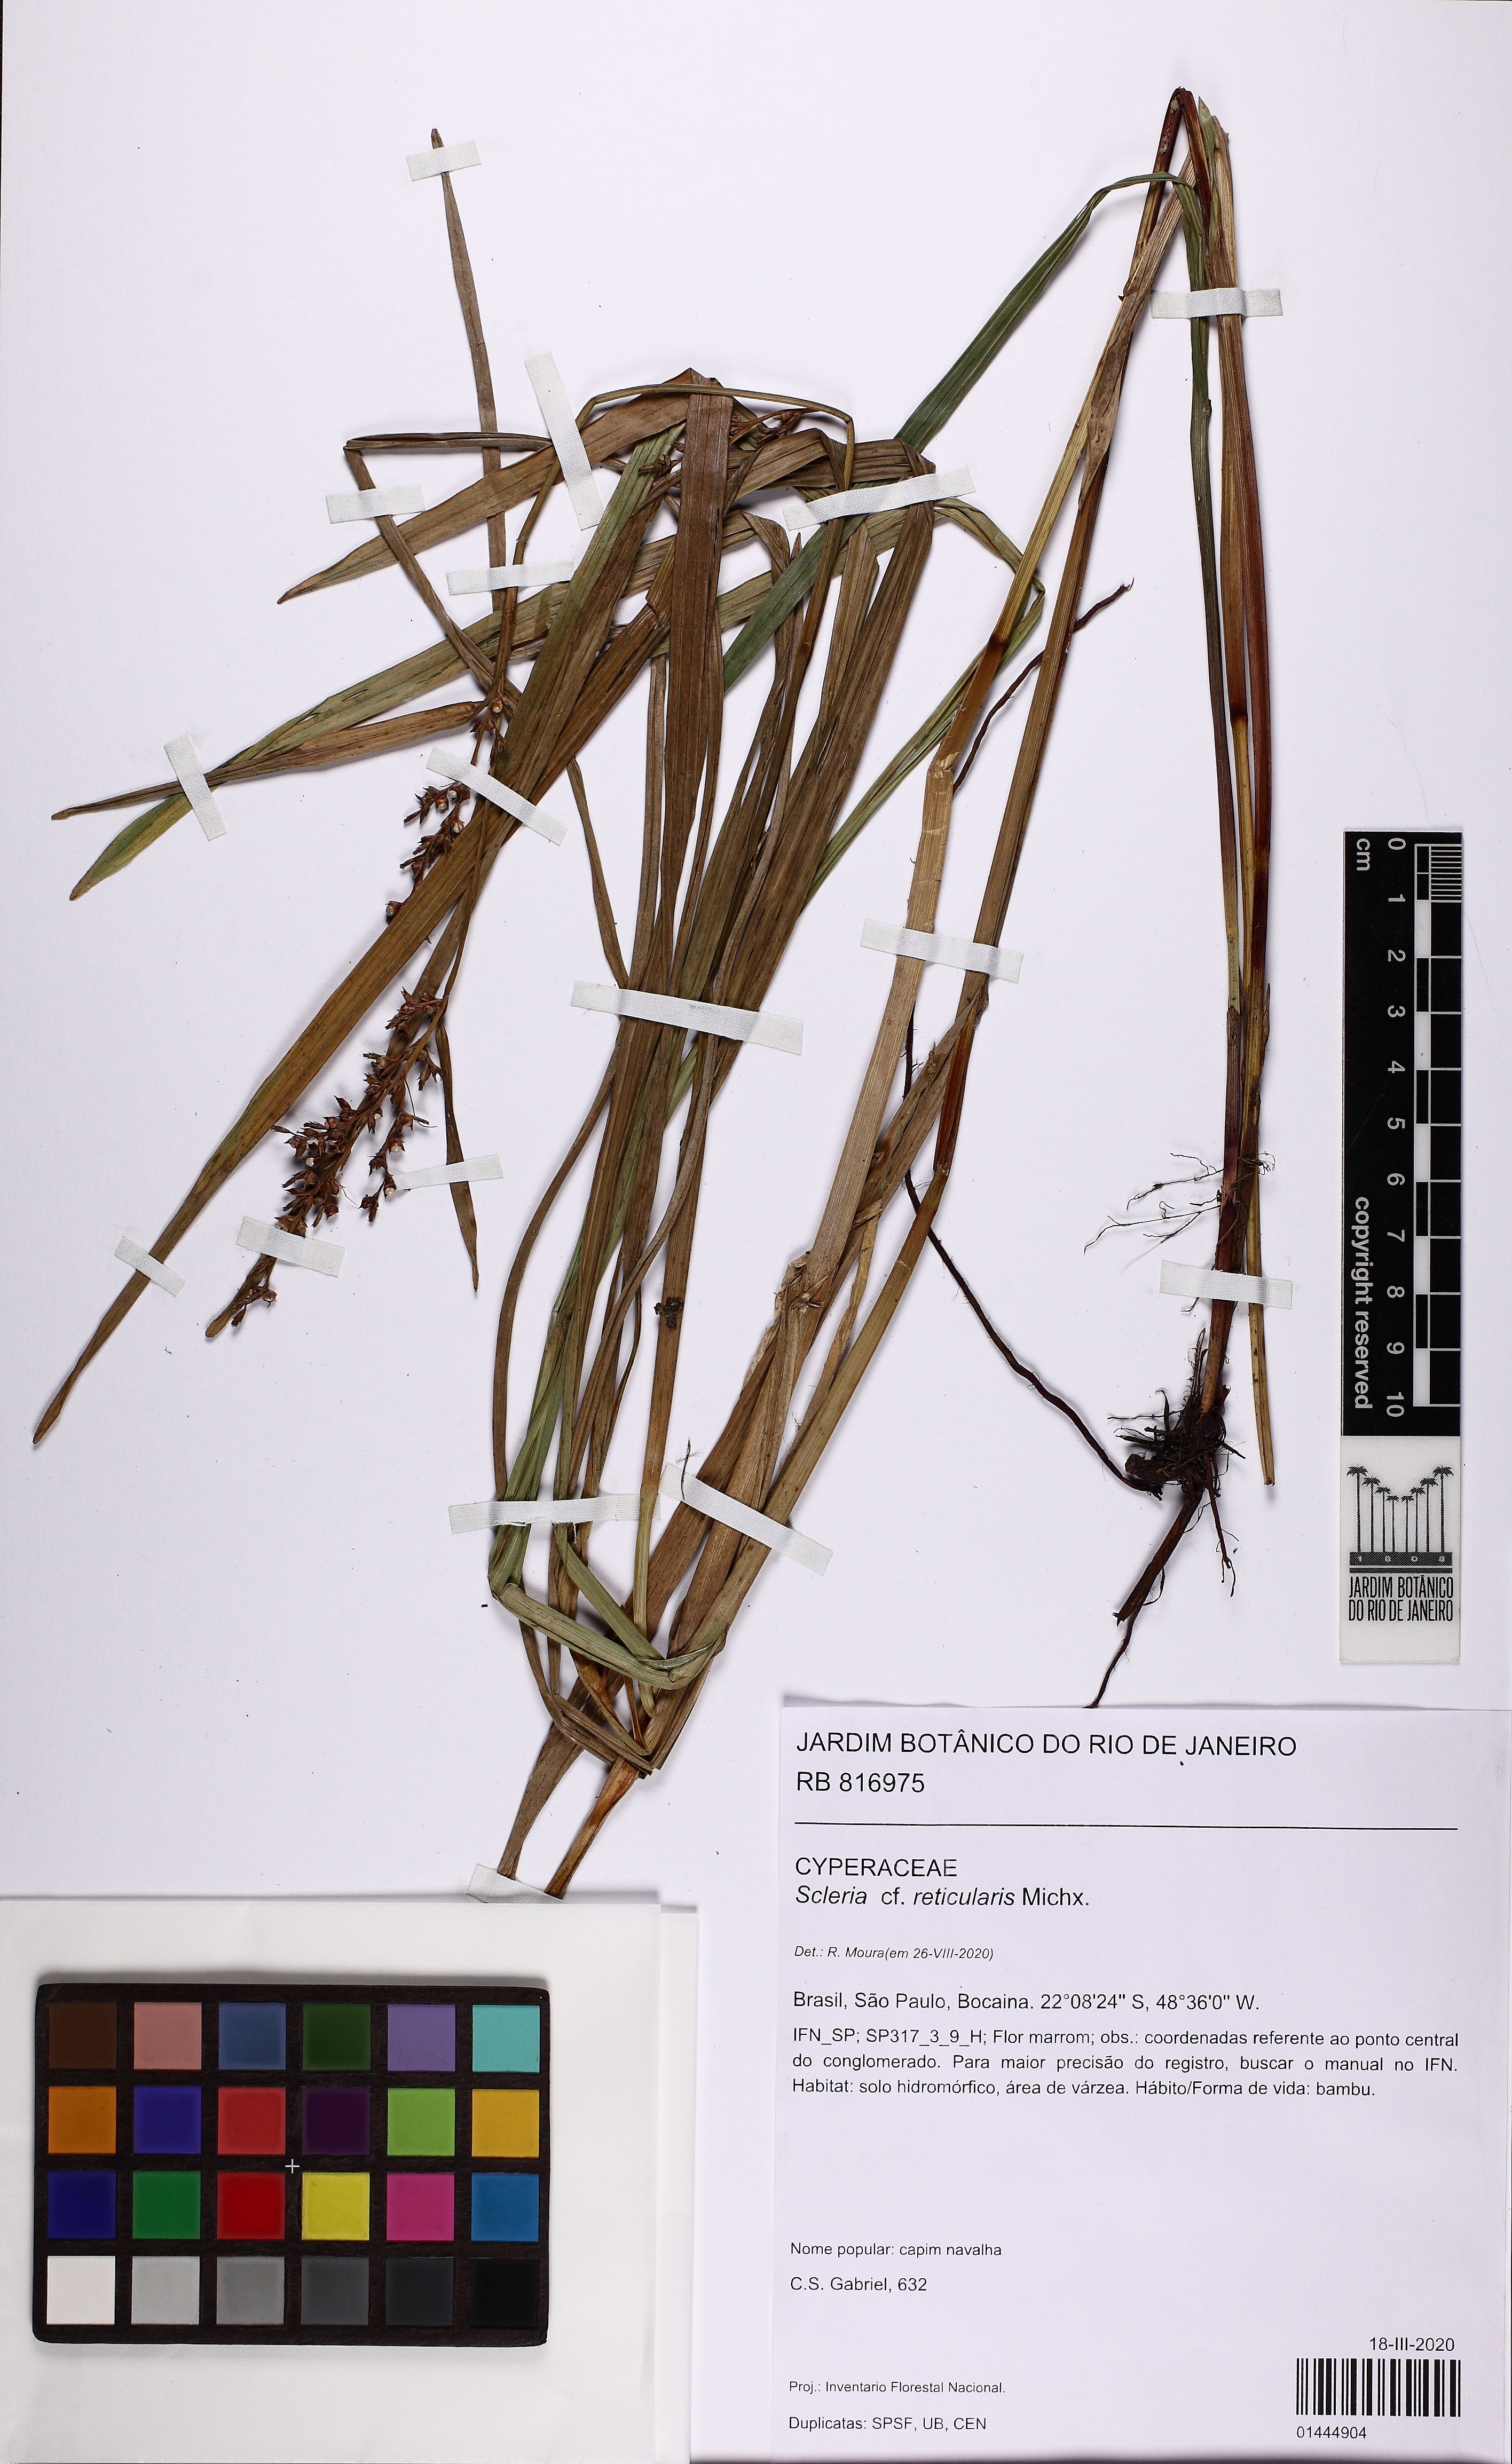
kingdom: Plantae
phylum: Tracheophyta
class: Liliopsida
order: Poales
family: Cyperaceae
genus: Scleria
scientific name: Scleria gaertneri
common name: Cortadera blanca
